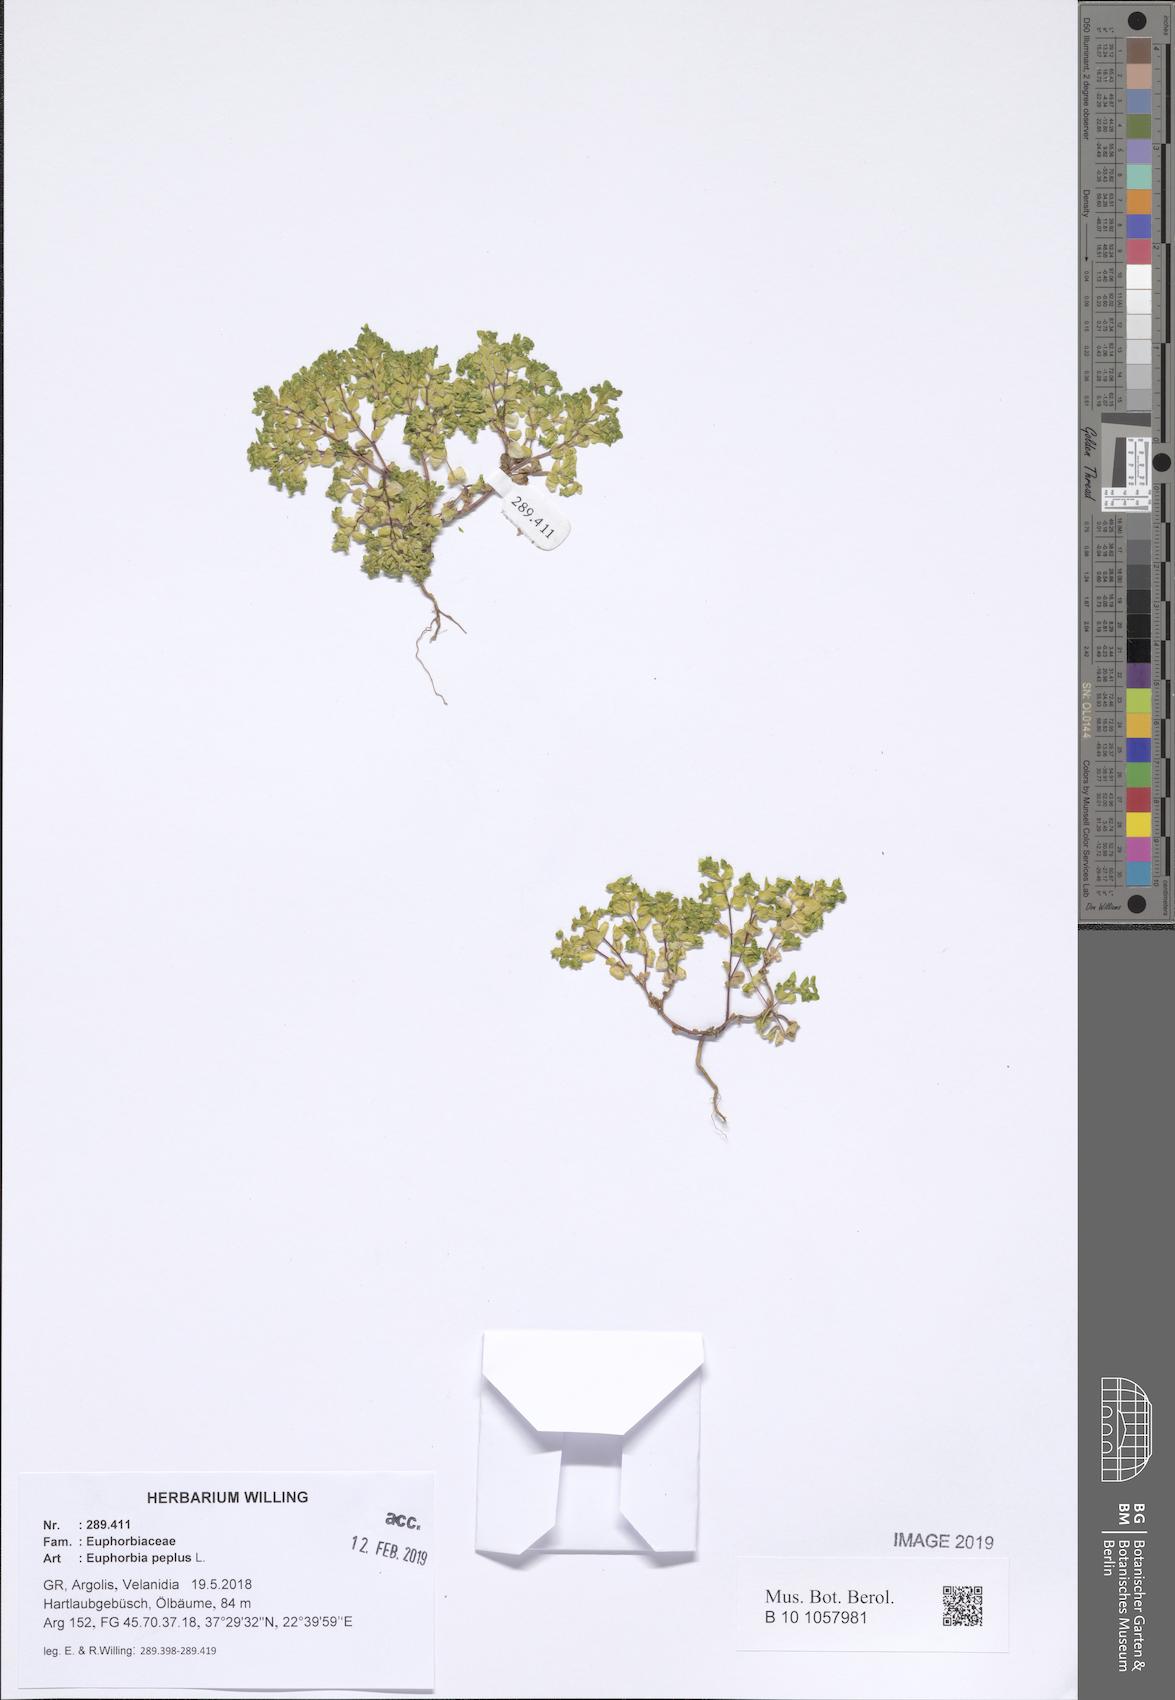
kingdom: Plantae
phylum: Tracheophyta
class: Magnoliopsida
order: Malpighiales
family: Euphorbiaceae
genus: Euphorbia
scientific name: Euphorbia peplus
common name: Petty spurge
